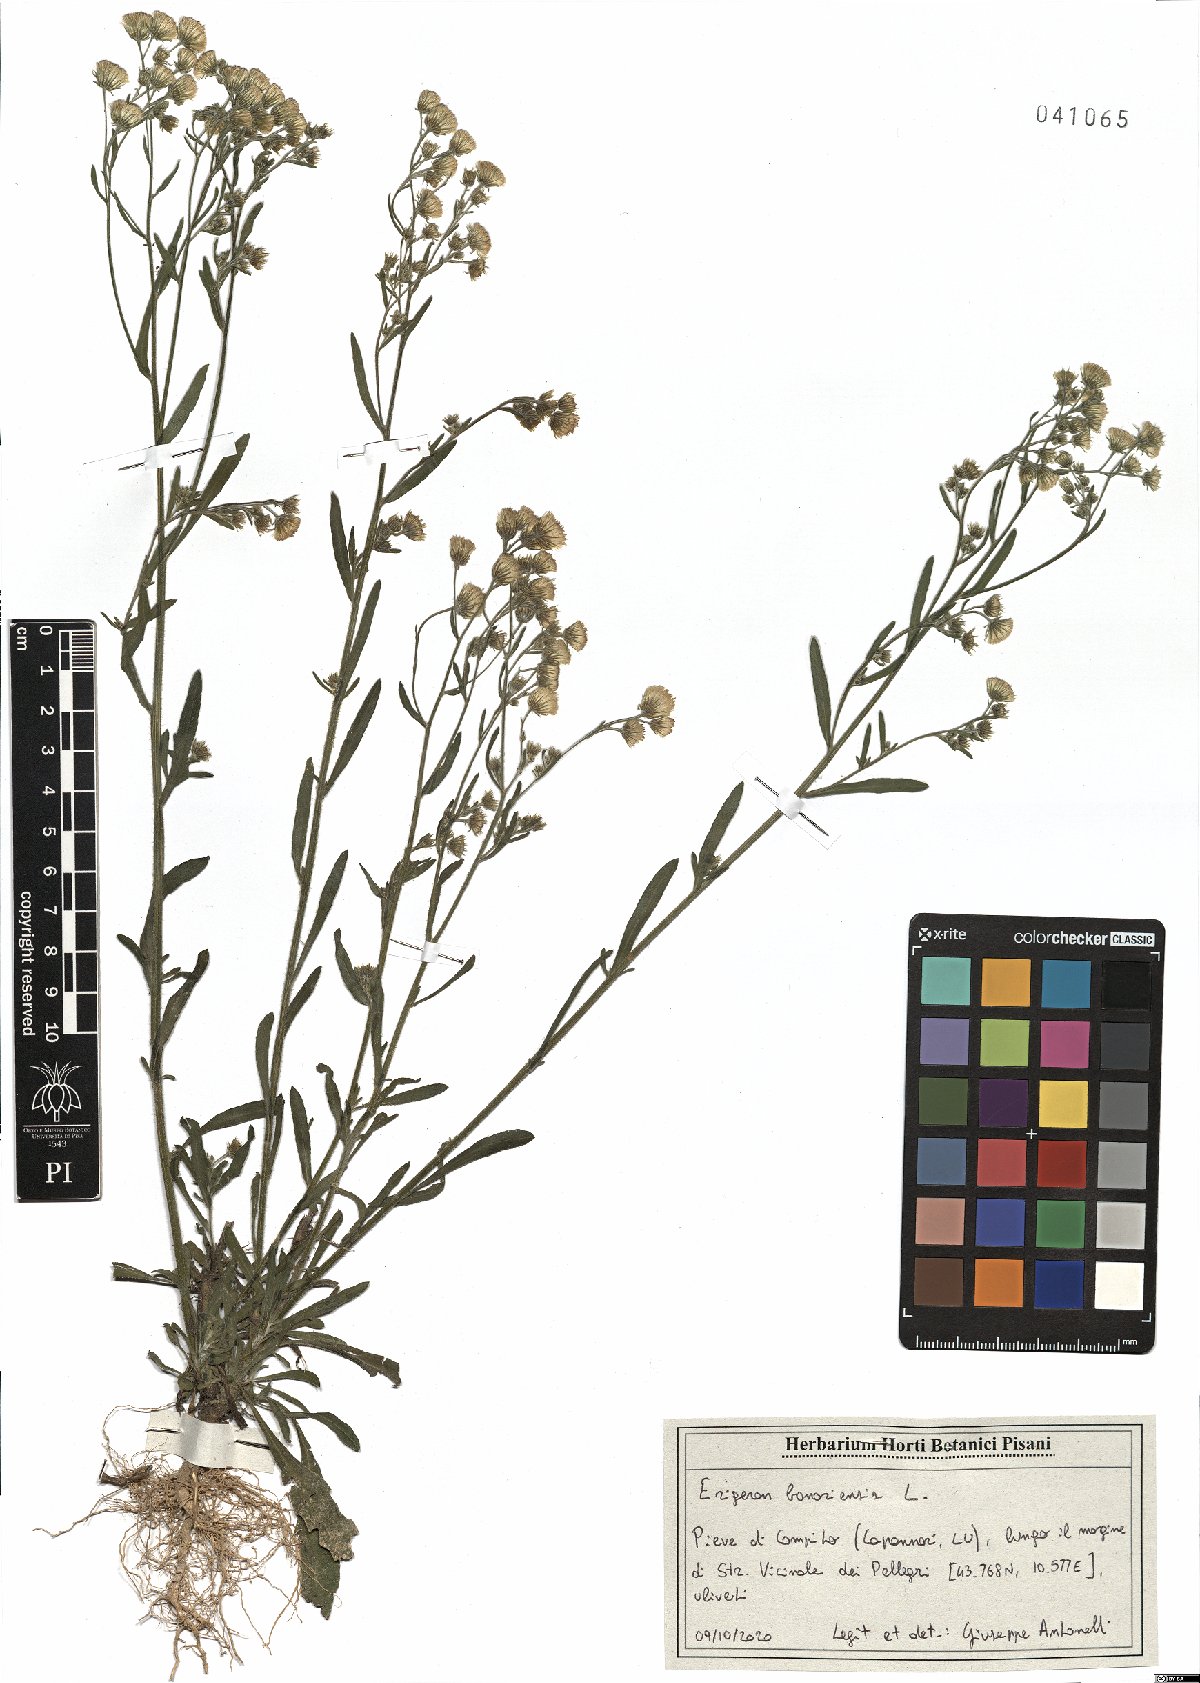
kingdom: Plantae
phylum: Tracheophyta
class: Magnoliopsida
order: Asterales
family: Asteraceae
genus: Erigeron
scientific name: Erigeron bonariensis
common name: Argentine fleabane
